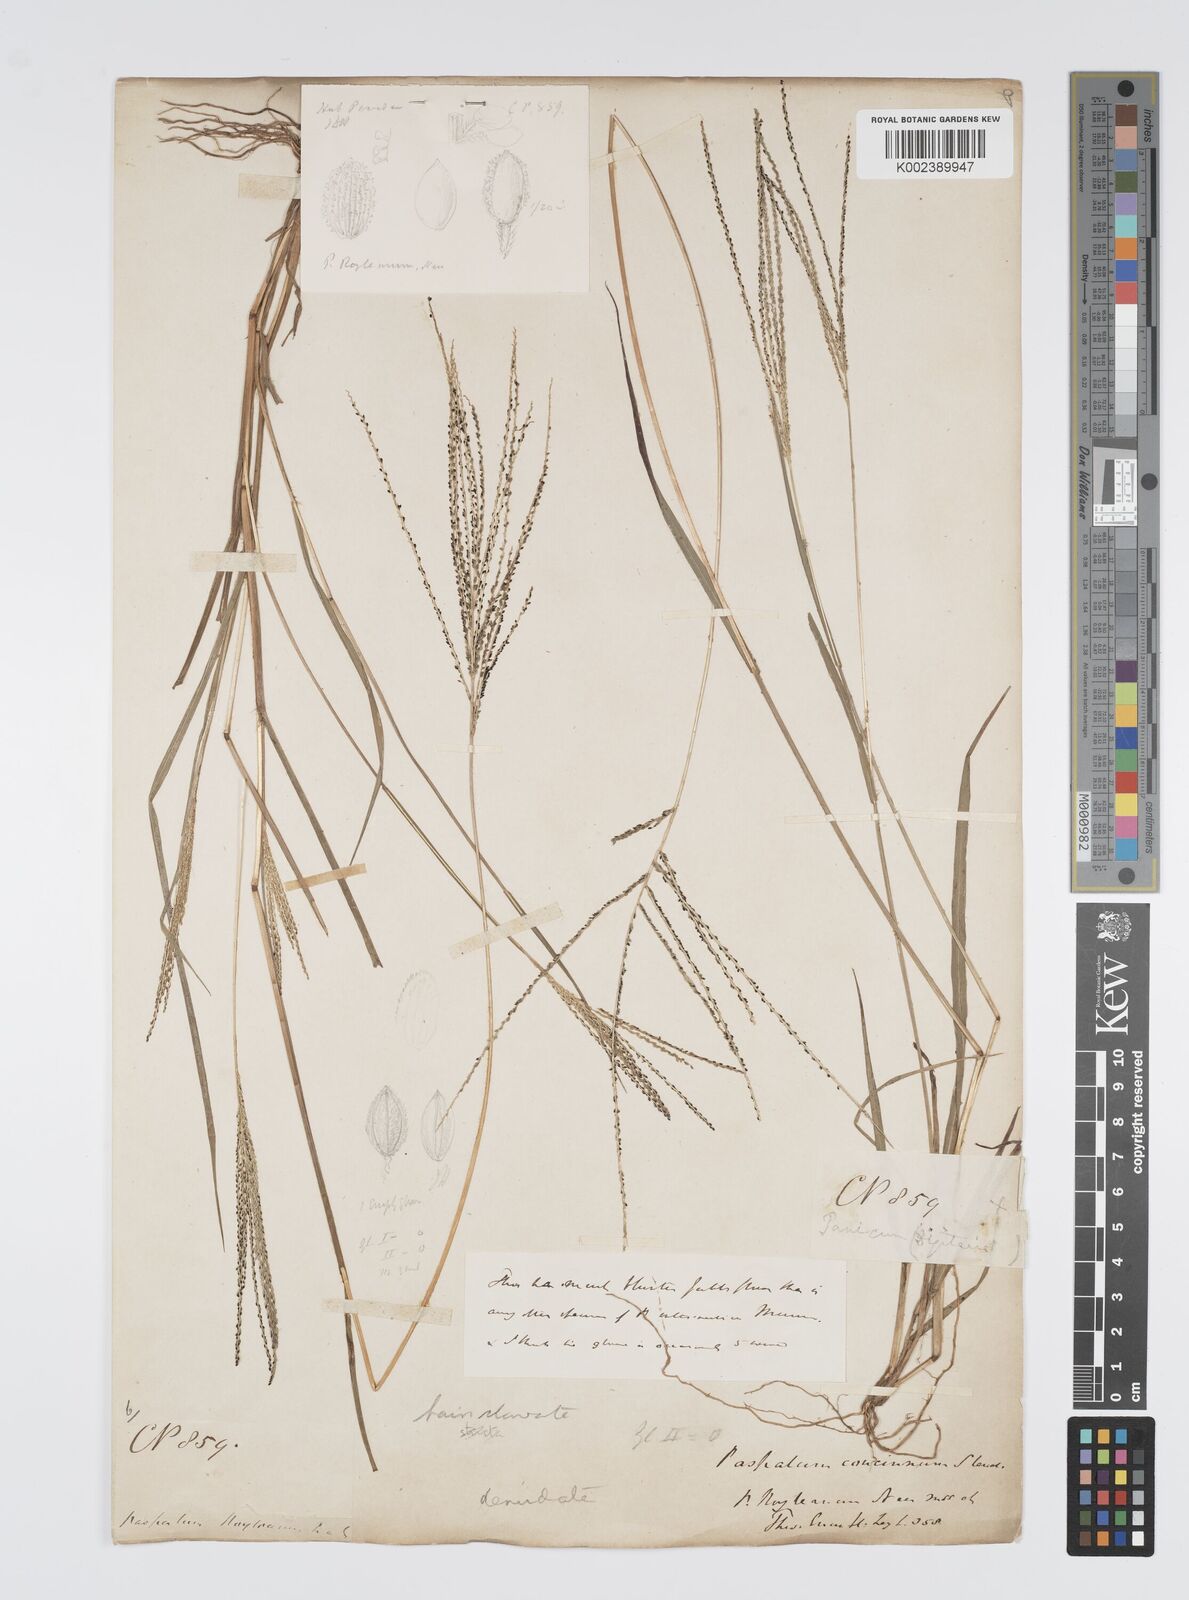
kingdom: Plantae
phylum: Tracheophyta
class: Liliopsida
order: Poales
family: Poaceae
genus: Digitaria
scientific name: Digitaria stricta
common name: Crabgrass
